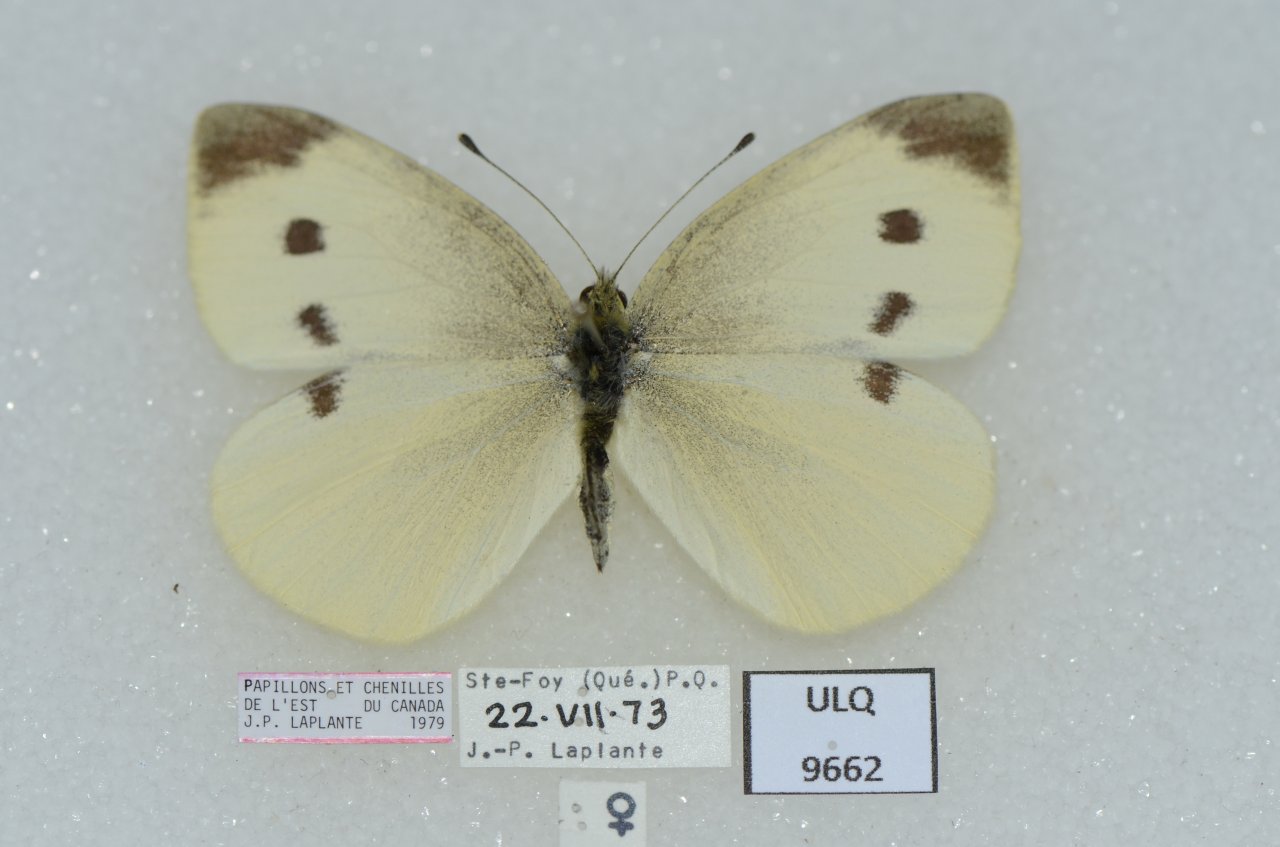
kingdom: Animalia
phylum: Arthropoda
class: Insecta
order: Lepidoptera
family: Pieridae
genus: Pieris
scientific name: Pieris rapae
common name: Cabbage White
